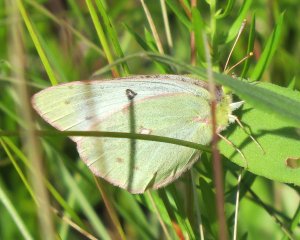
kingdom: Animalia
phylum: Arthropoda
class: Insecta
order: Lepidoptera
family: Pieridae
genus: Colias
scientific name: Colias philodice
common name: Clouded Sulphur
